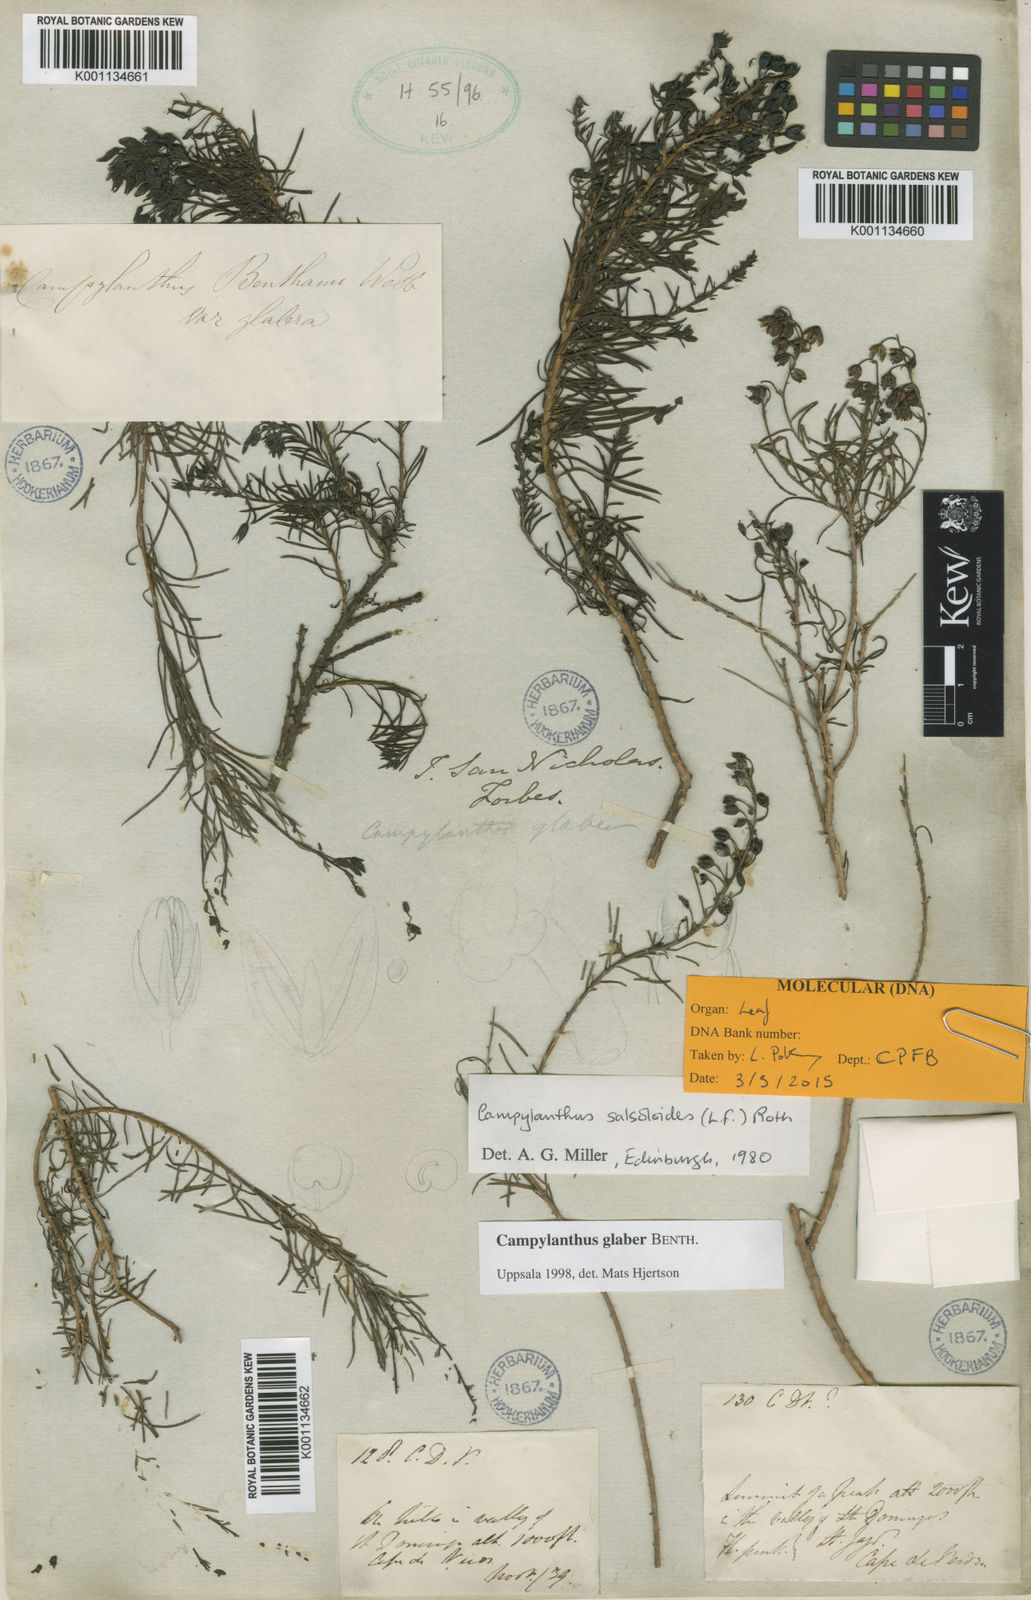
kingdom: Plantae
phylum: Tracheophyta
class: Magnoliopsida
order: Lamiales
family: Plantaginaceae
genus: Campylanthus
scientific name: Campylanthus glaber
